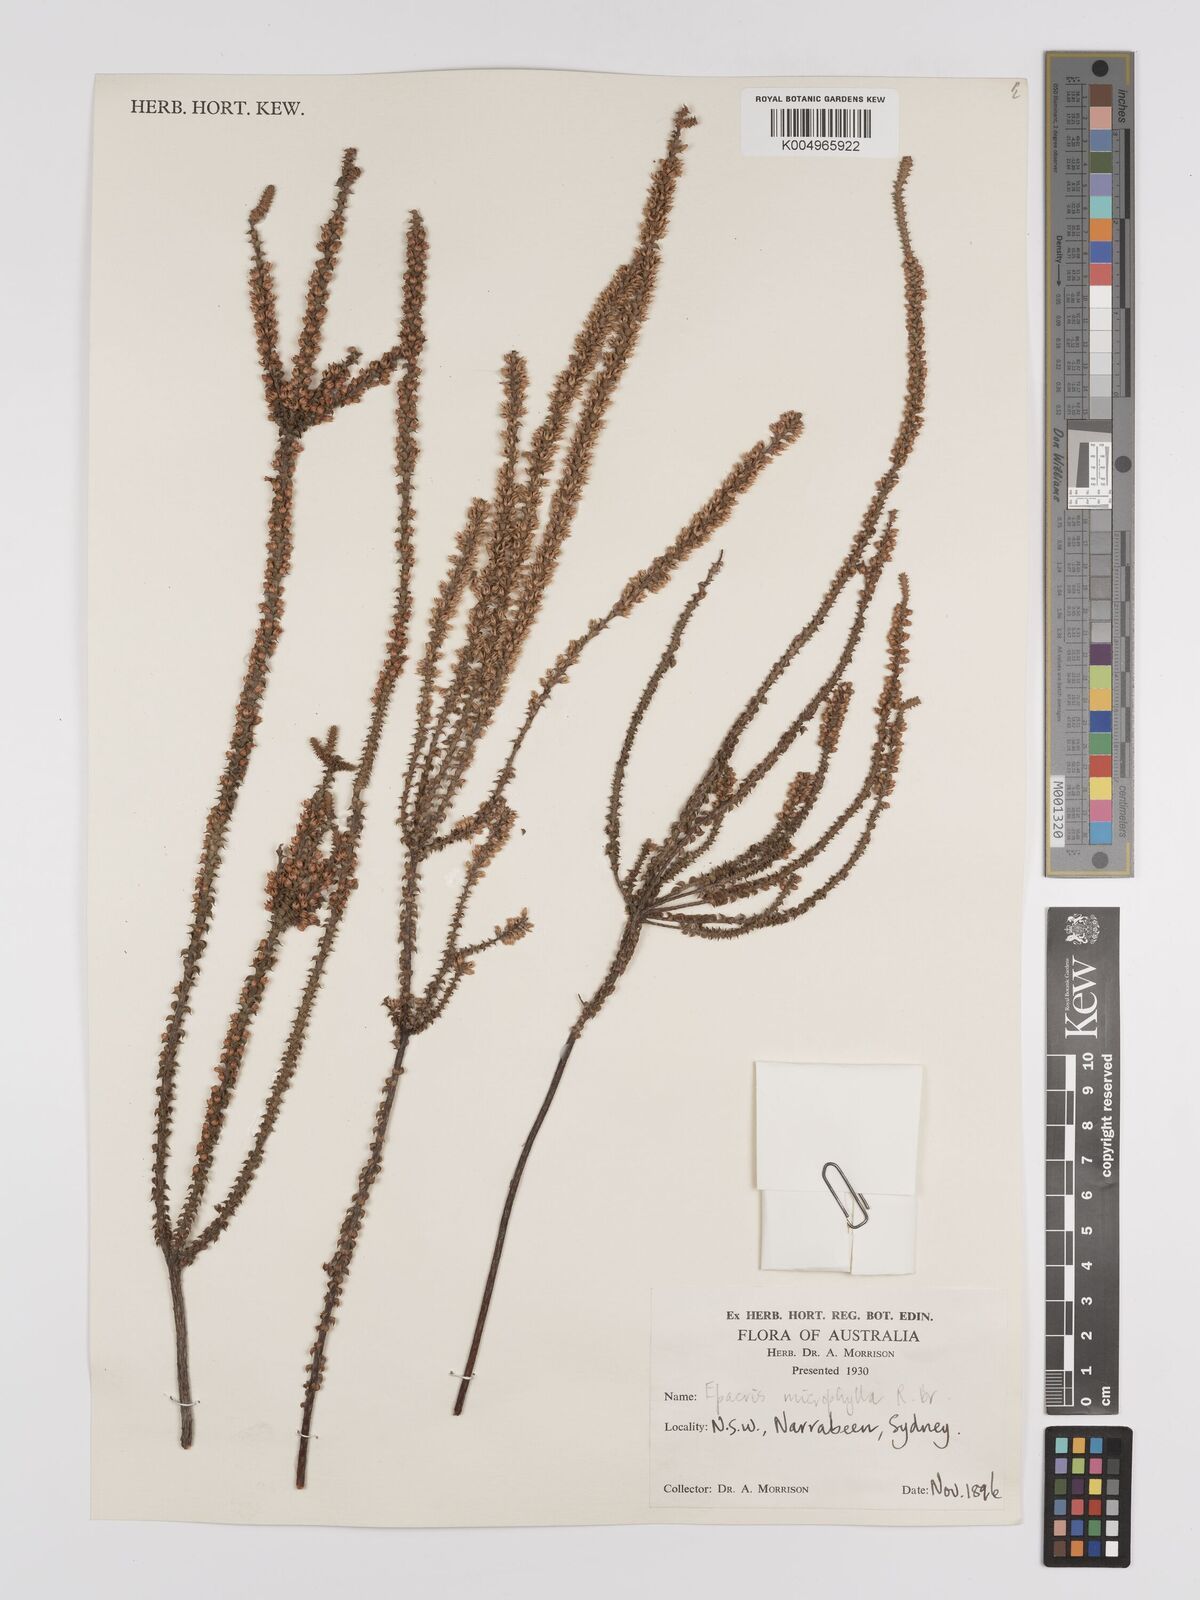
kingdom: Plantae
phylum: Tracheophyta
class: Magnoliopsida
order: Ericales
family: Ericaceae
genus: Epacris
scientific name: Epacris
